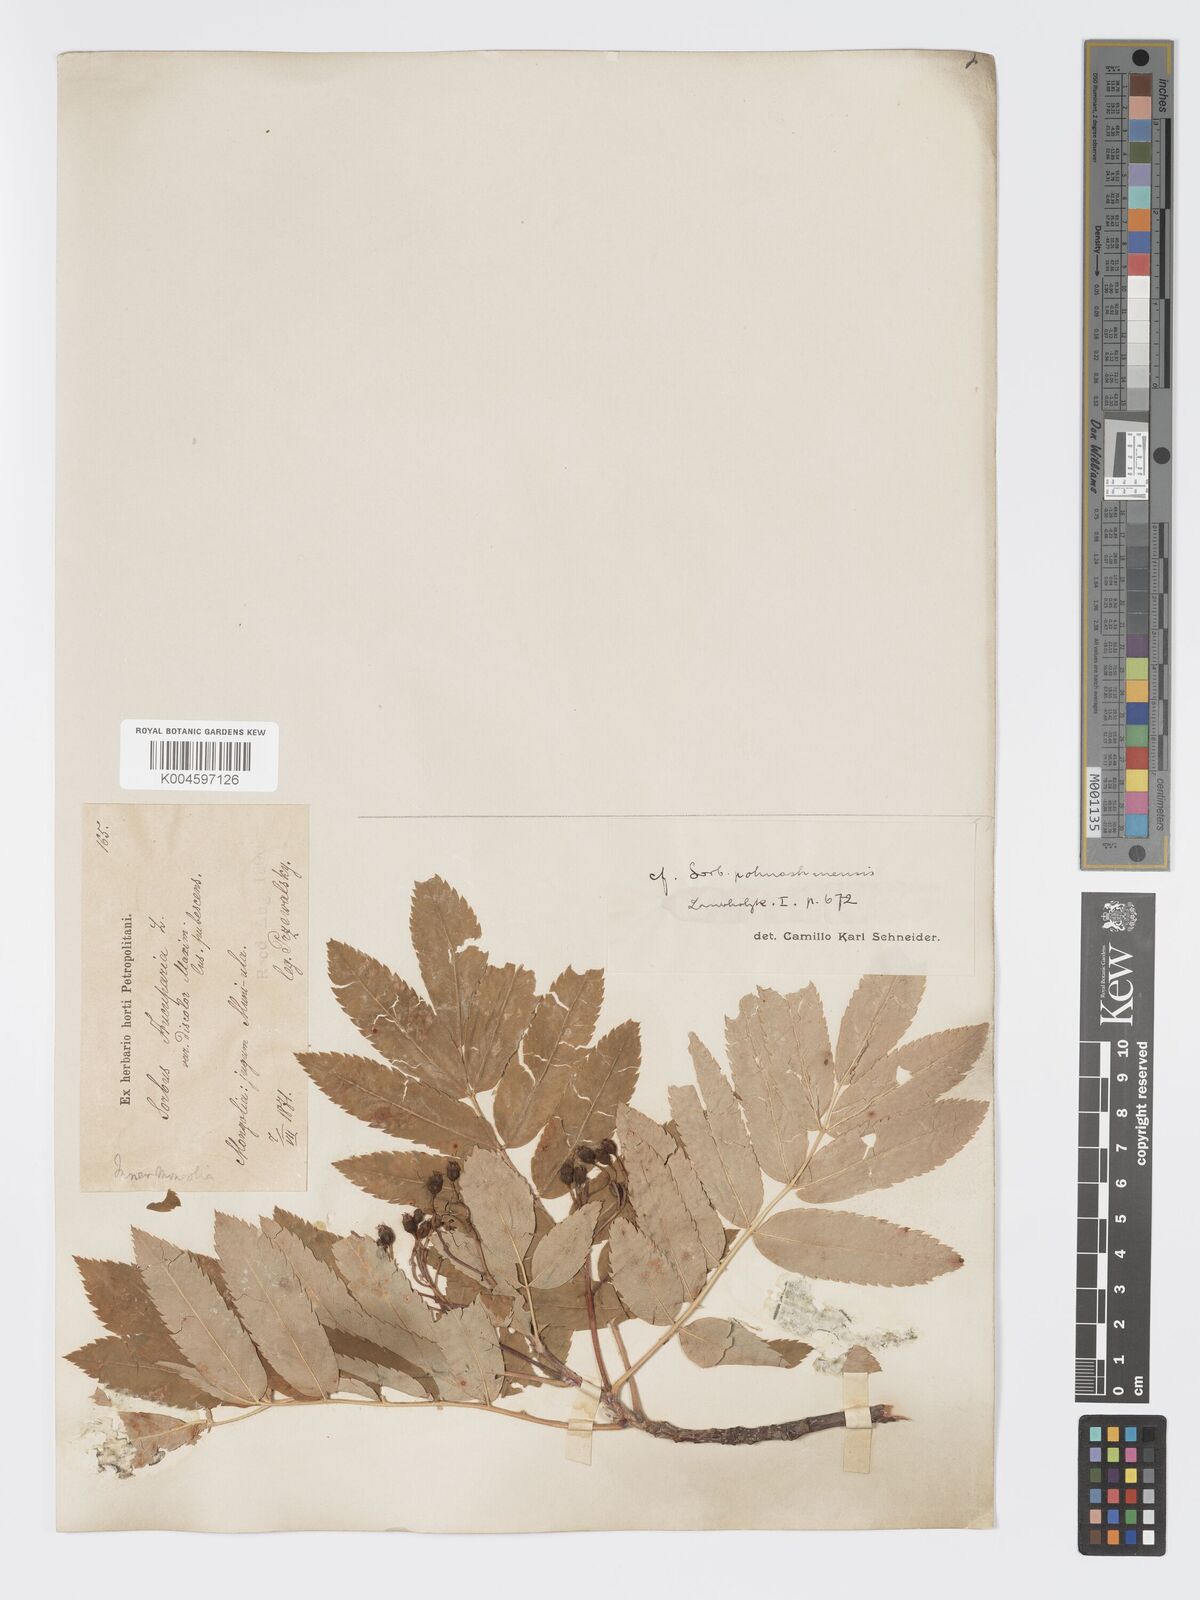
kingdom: Plantae
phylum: Tracheophyta
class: Magnoliopsida
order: Rosales
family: Rosaceae
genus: Sorbus
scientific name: Sorbus aucuparia
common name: Rowan
